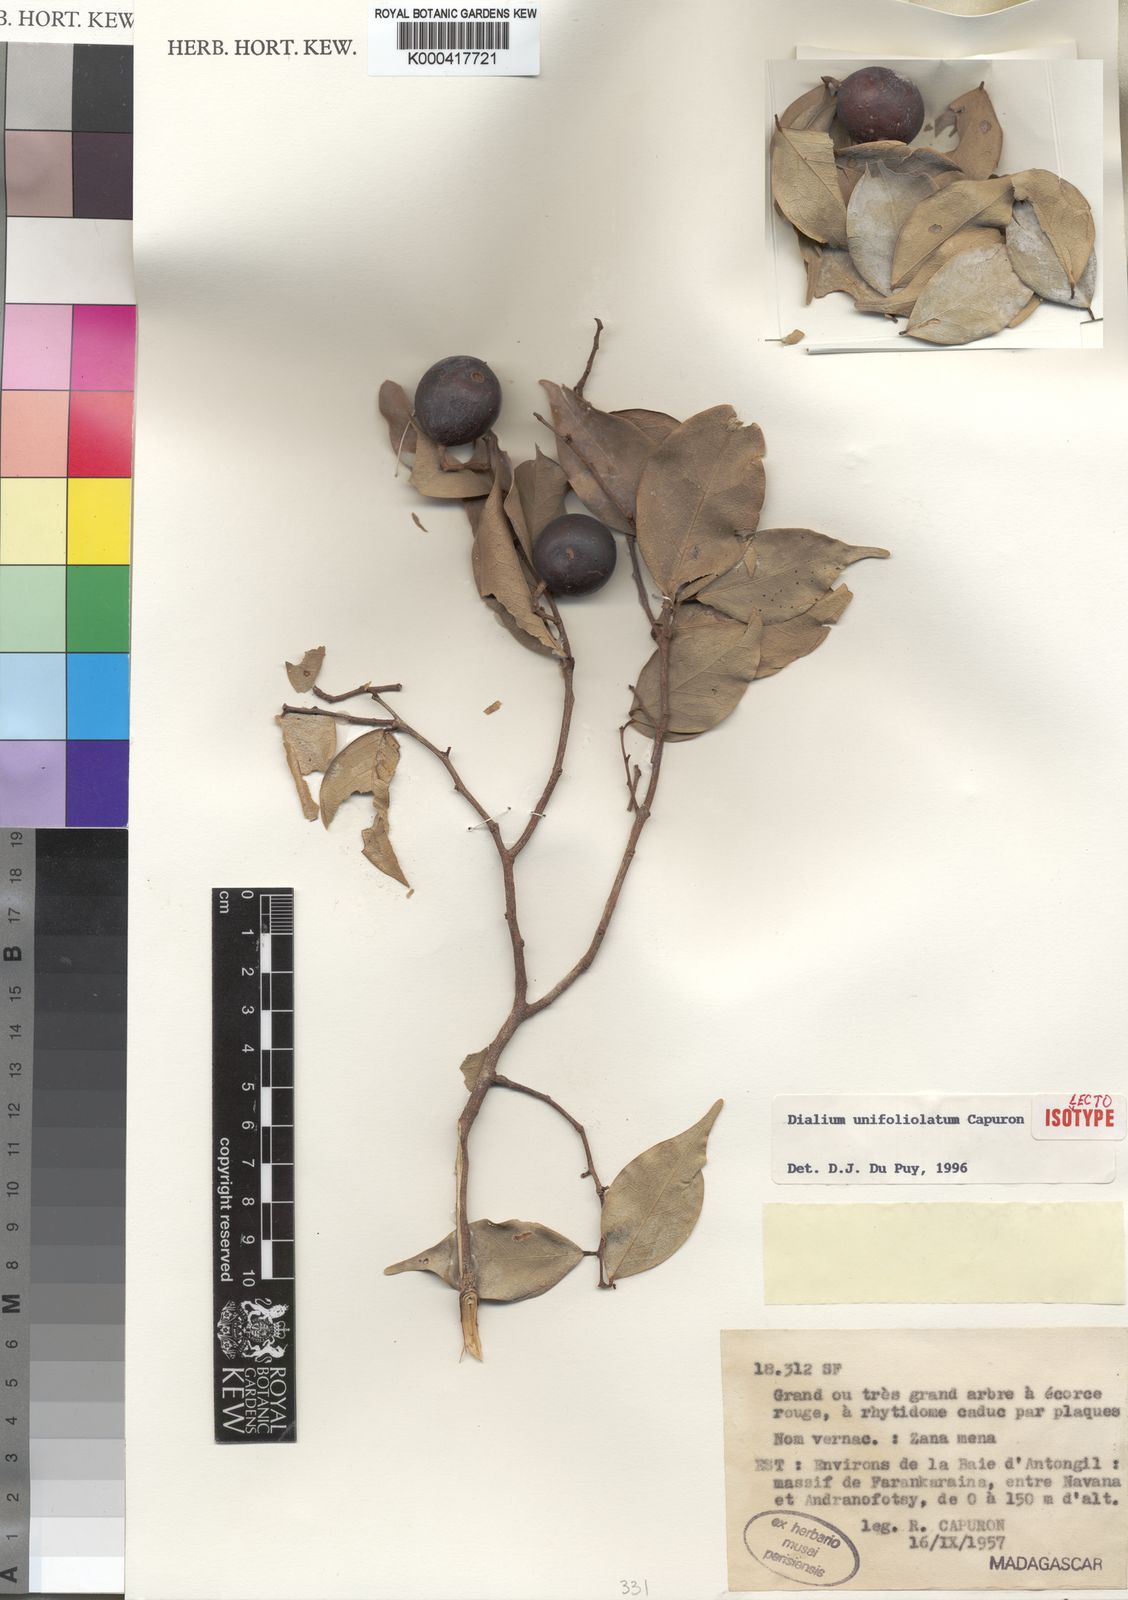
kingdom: Plantae
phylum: Tracheophyta
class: Magnoliopsida
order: Fabales
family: Fabaceae
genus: Dialium
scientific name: Dialium unifoliolatum
